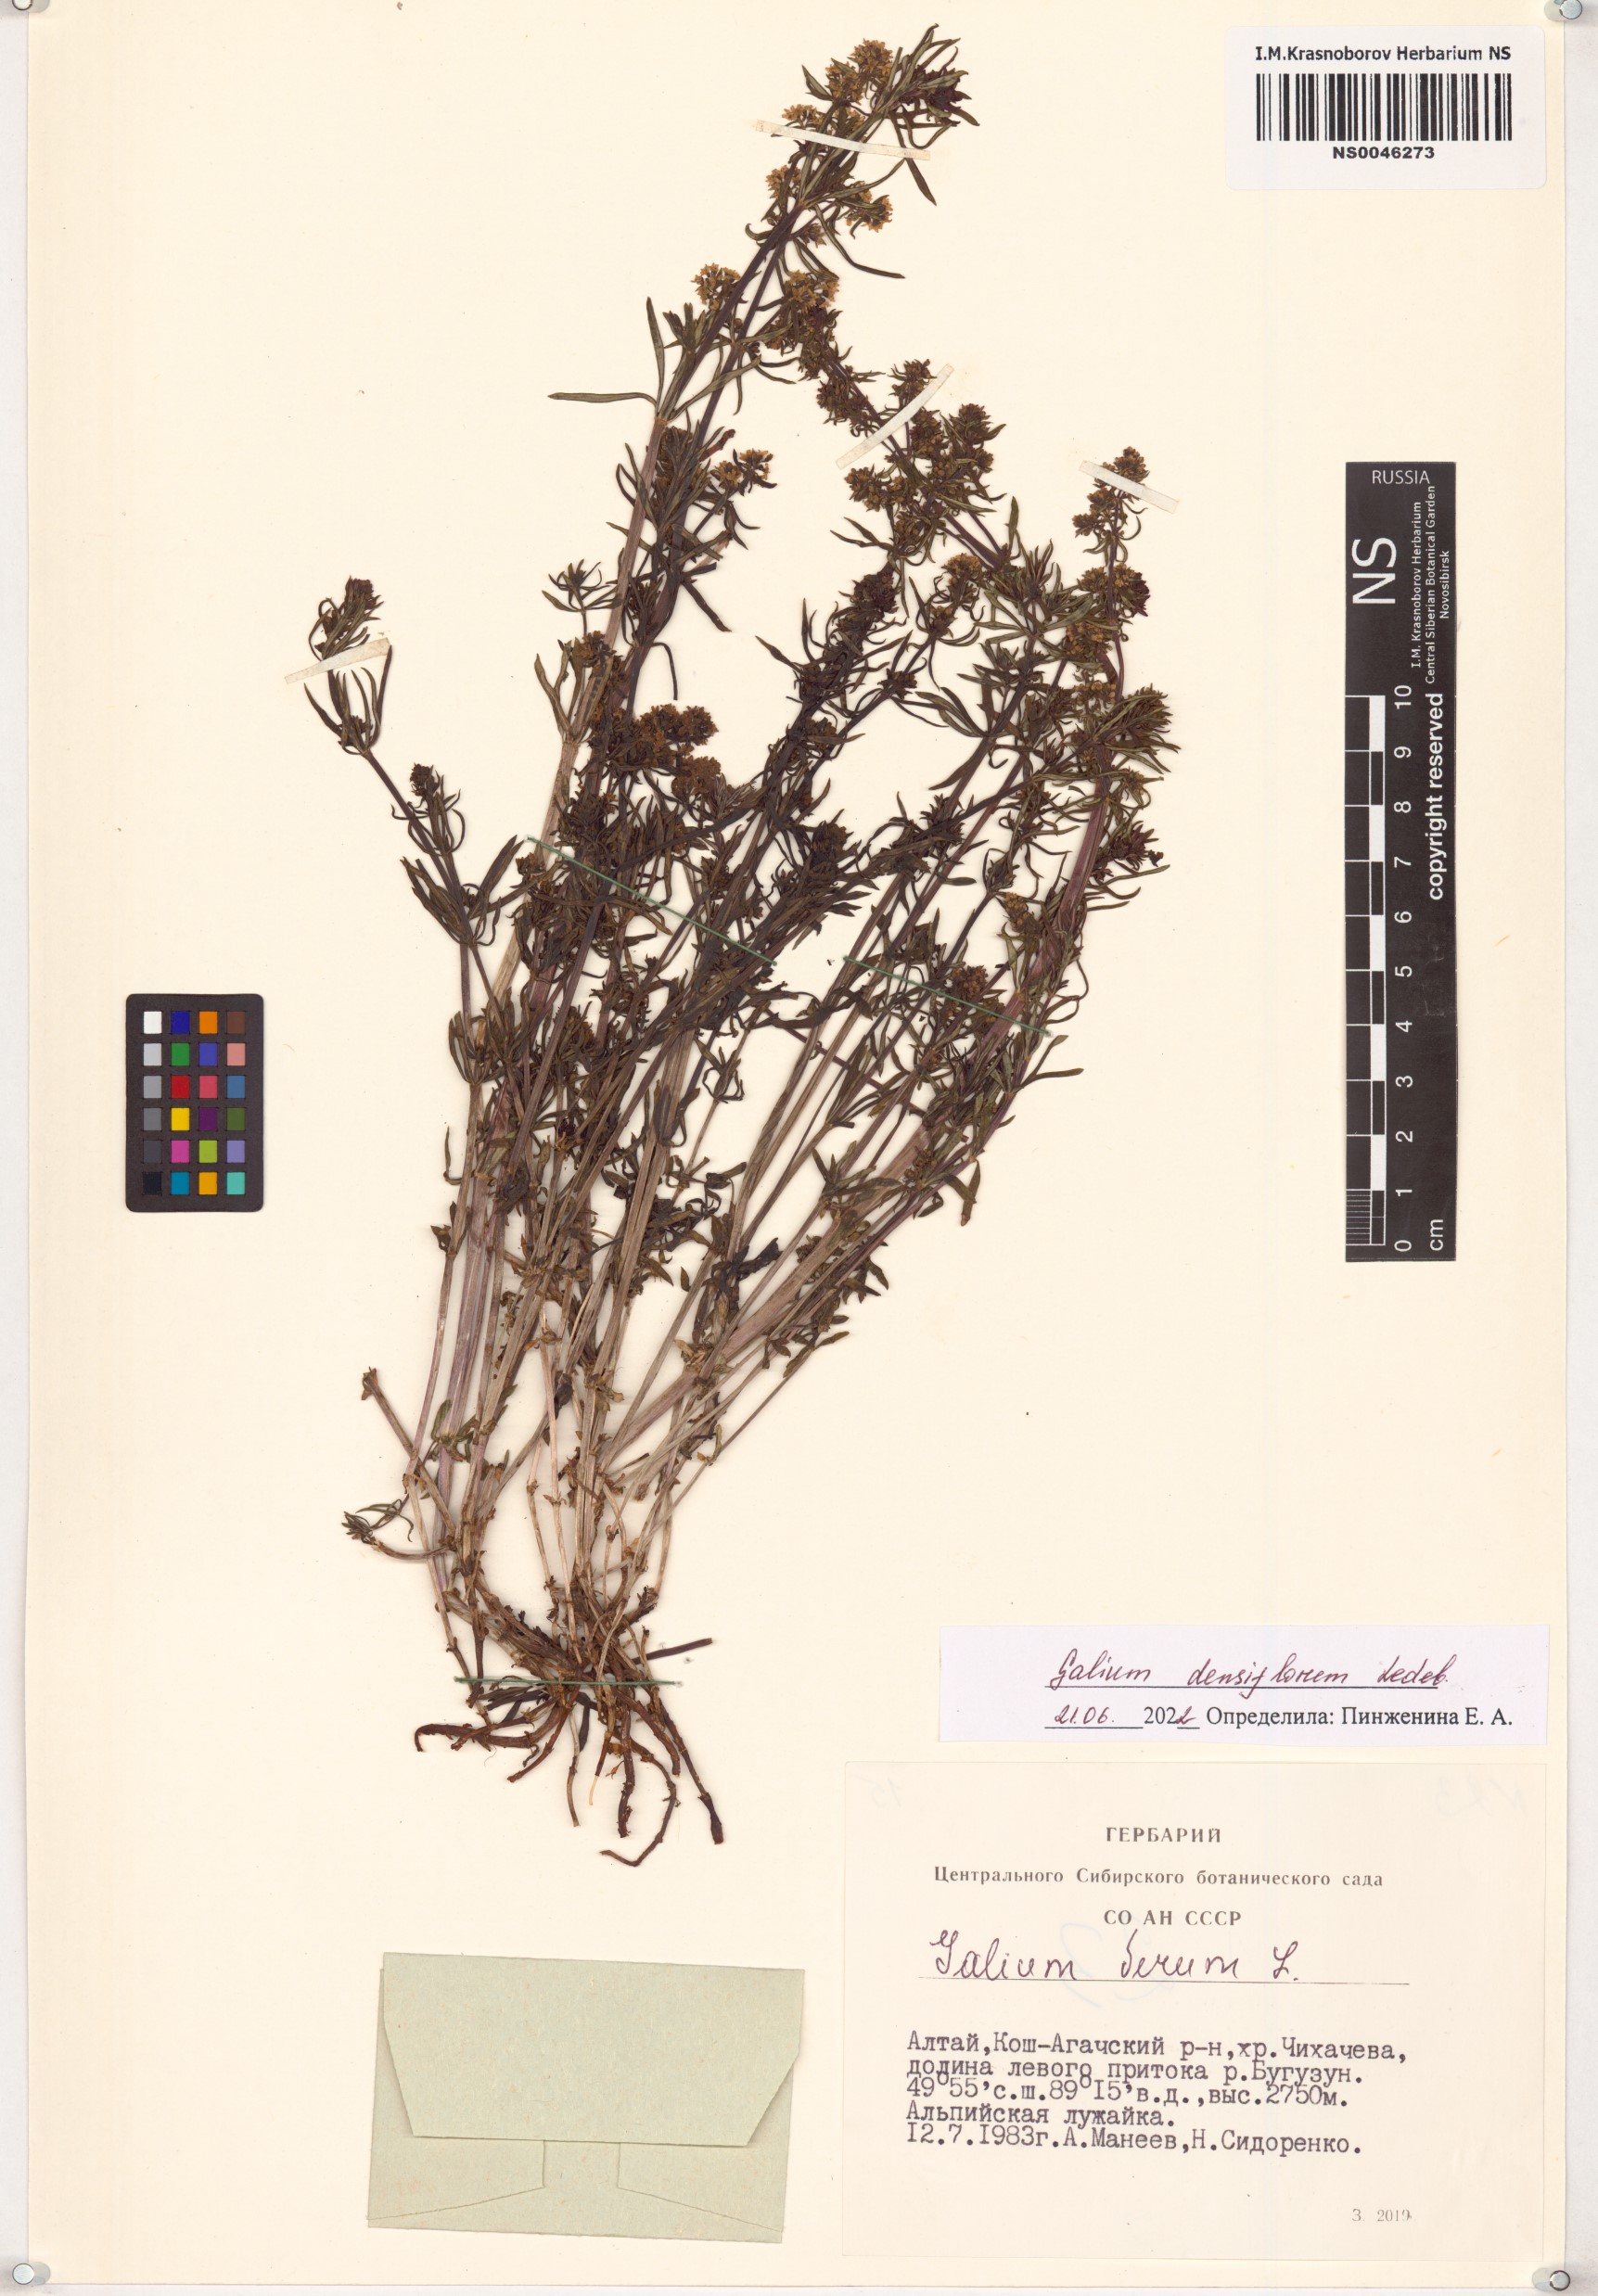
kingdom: Plantae
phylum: Tracheophyta
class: Magnoliopsida
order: Gentianales
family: Rubiaceae
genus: Galium
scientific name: Galium densiflorum
